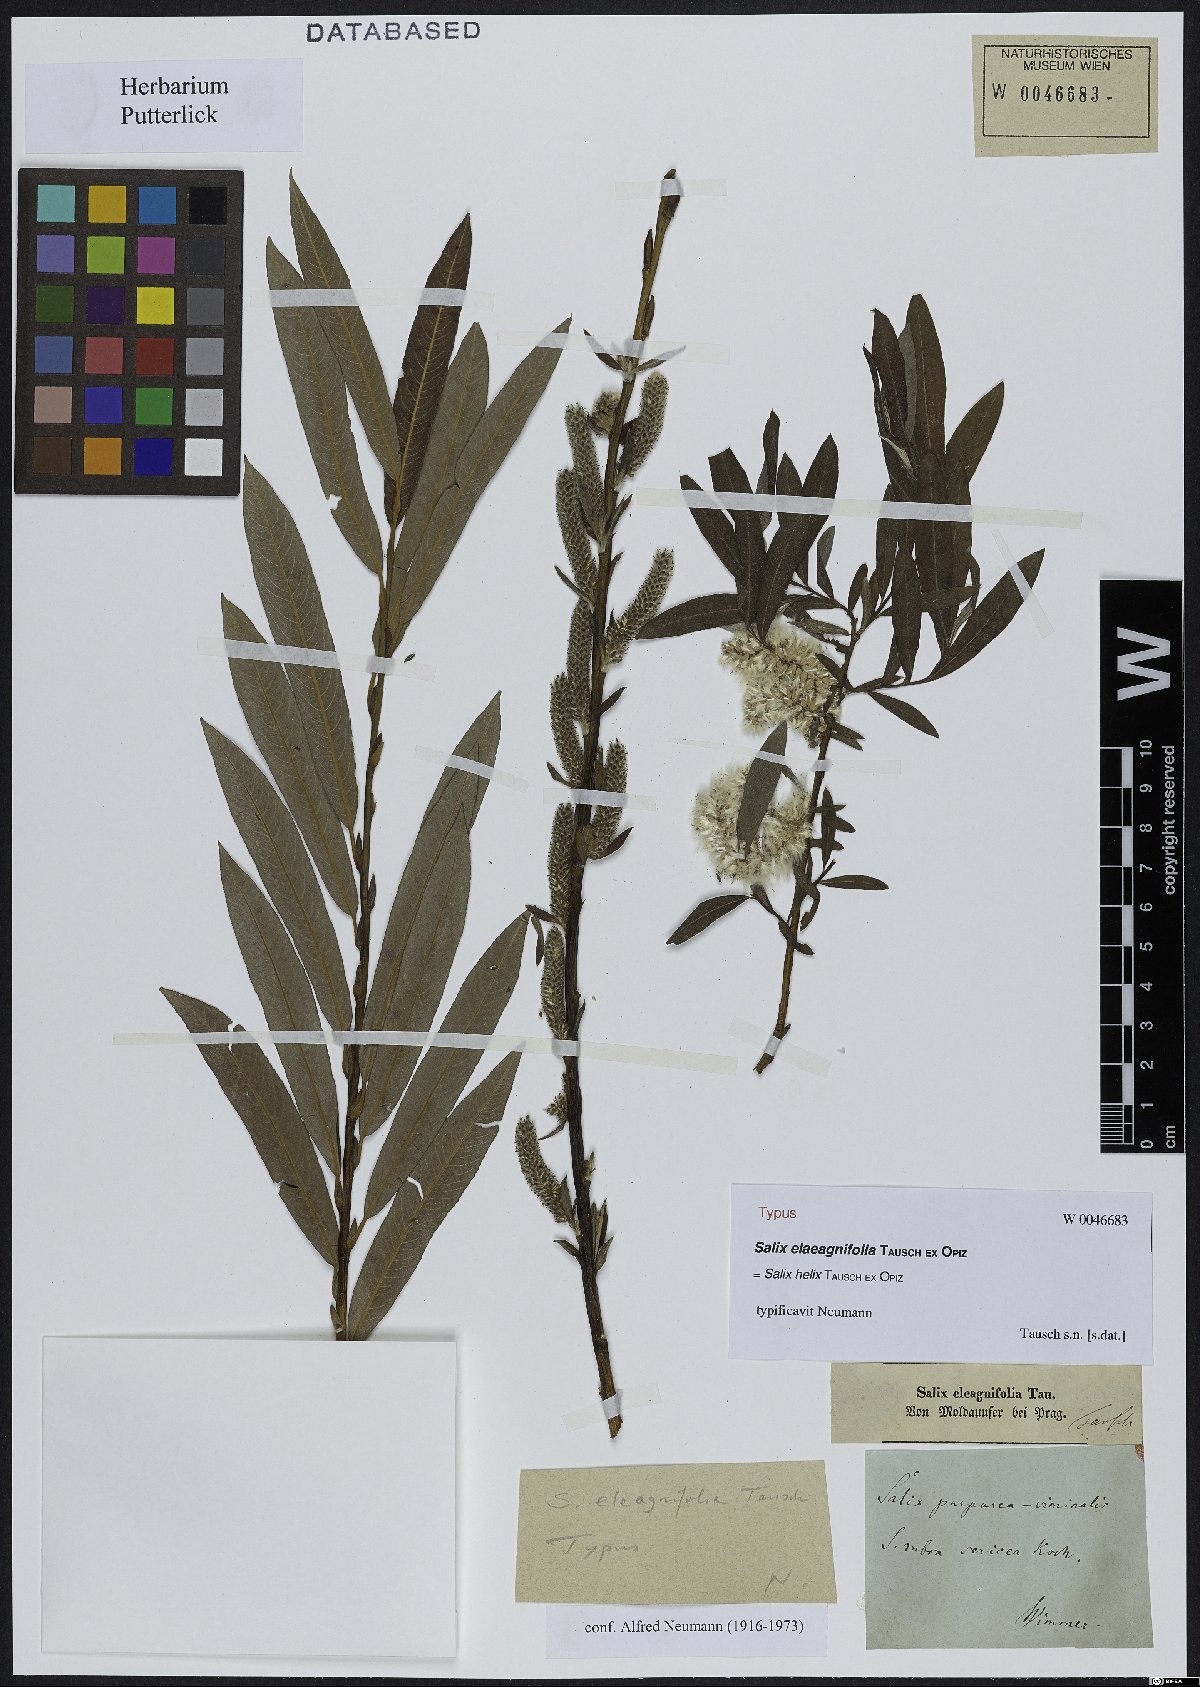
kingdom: Plantae
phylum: Tracheophyta
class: Magnoliopsida
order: Malpighiales
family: Salicaceae
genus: Salix
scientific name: Salix purpurea
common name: Purple willow
